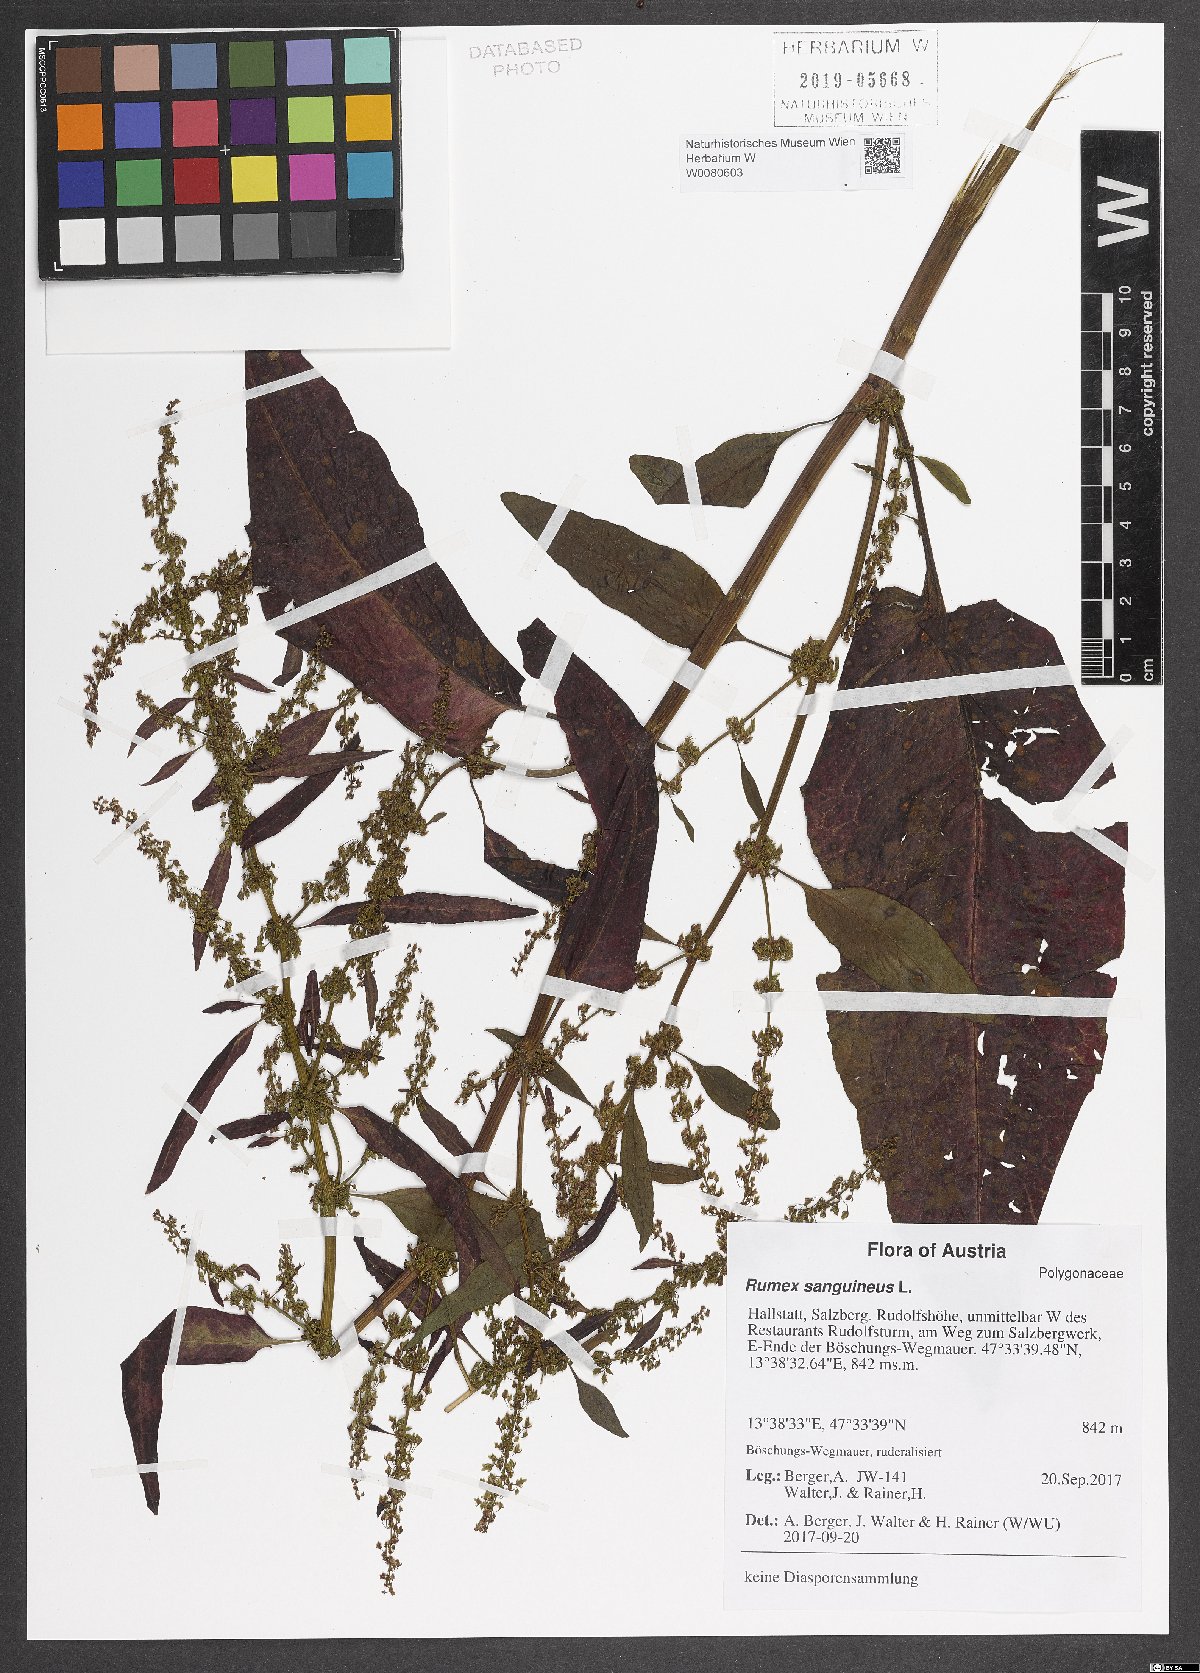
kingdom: Plantae
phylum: Tracheophyta
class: Magnoliopsida
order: Caryophyllales
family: Polygonaceae
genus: Rumex
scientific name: Rumex sanguineus
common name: Wood dock
